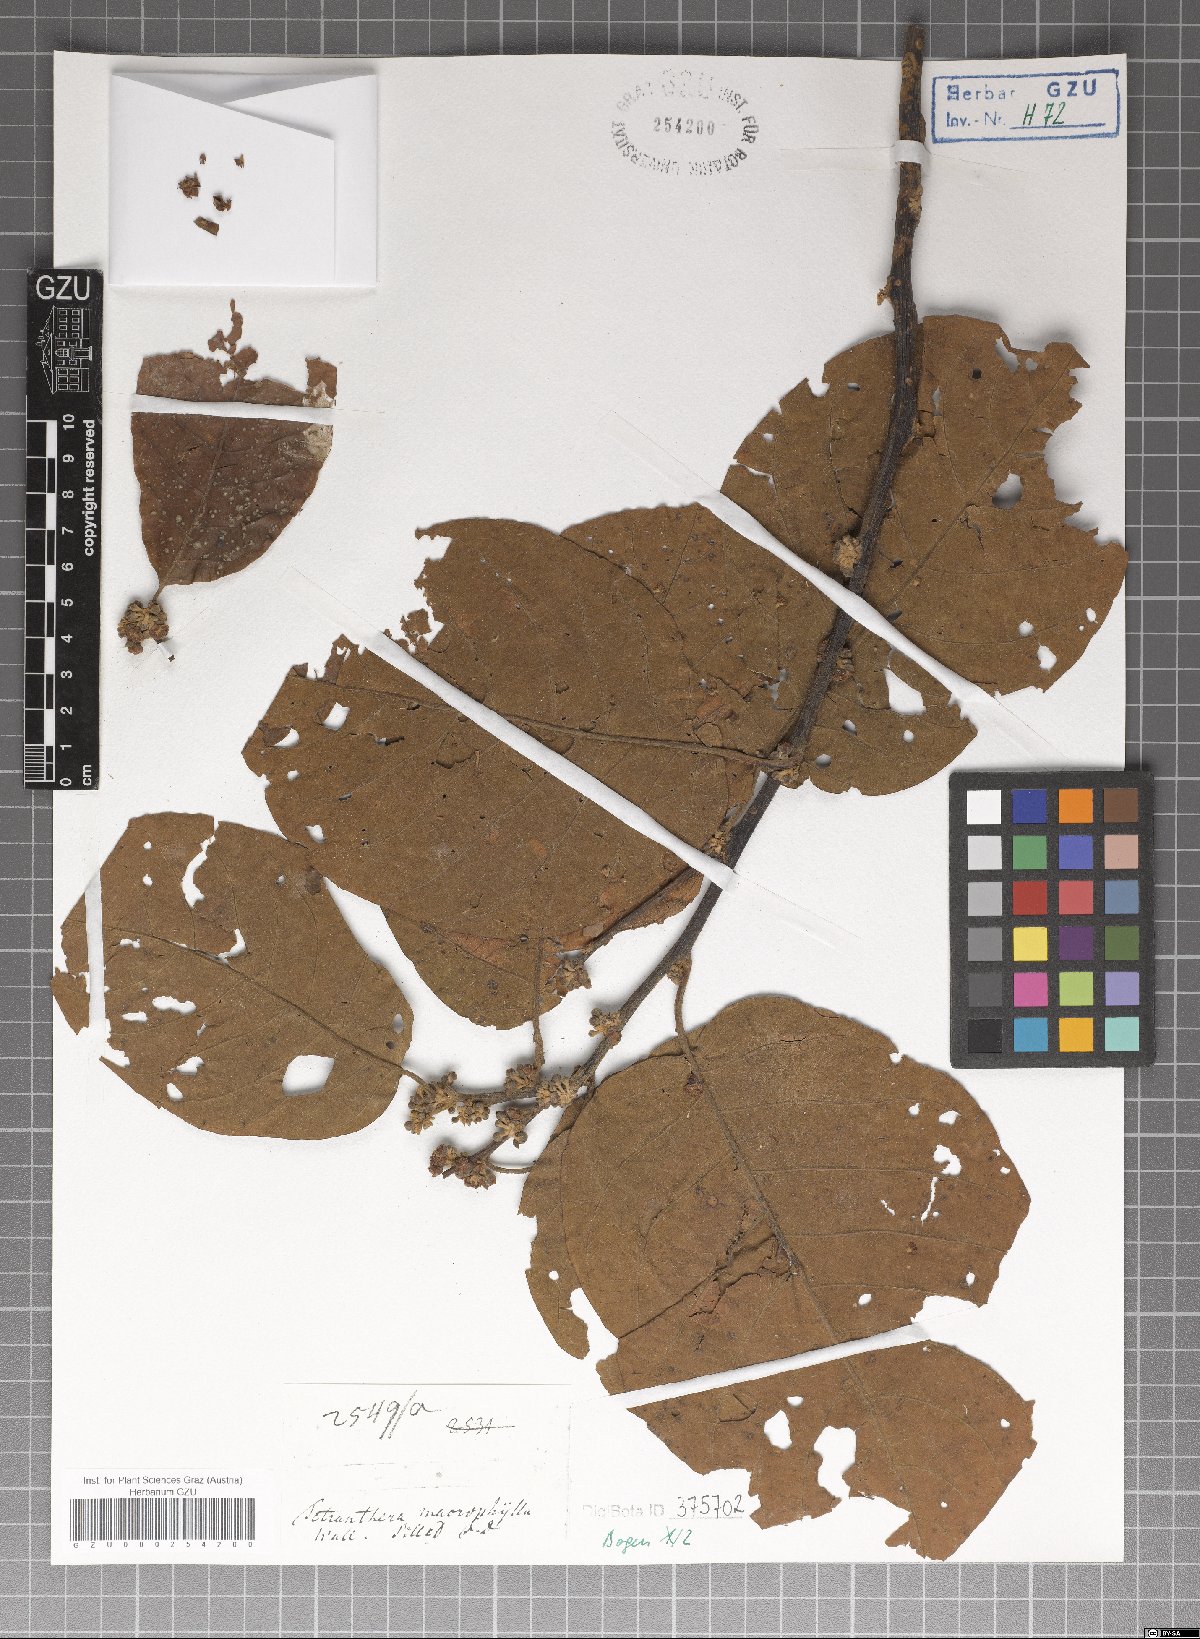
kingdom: Plantae
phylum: Tracheophyta
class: Magnoliopsida
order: Laurales
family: Lauraceae
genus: Litsea
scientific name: Litsea monopetala
